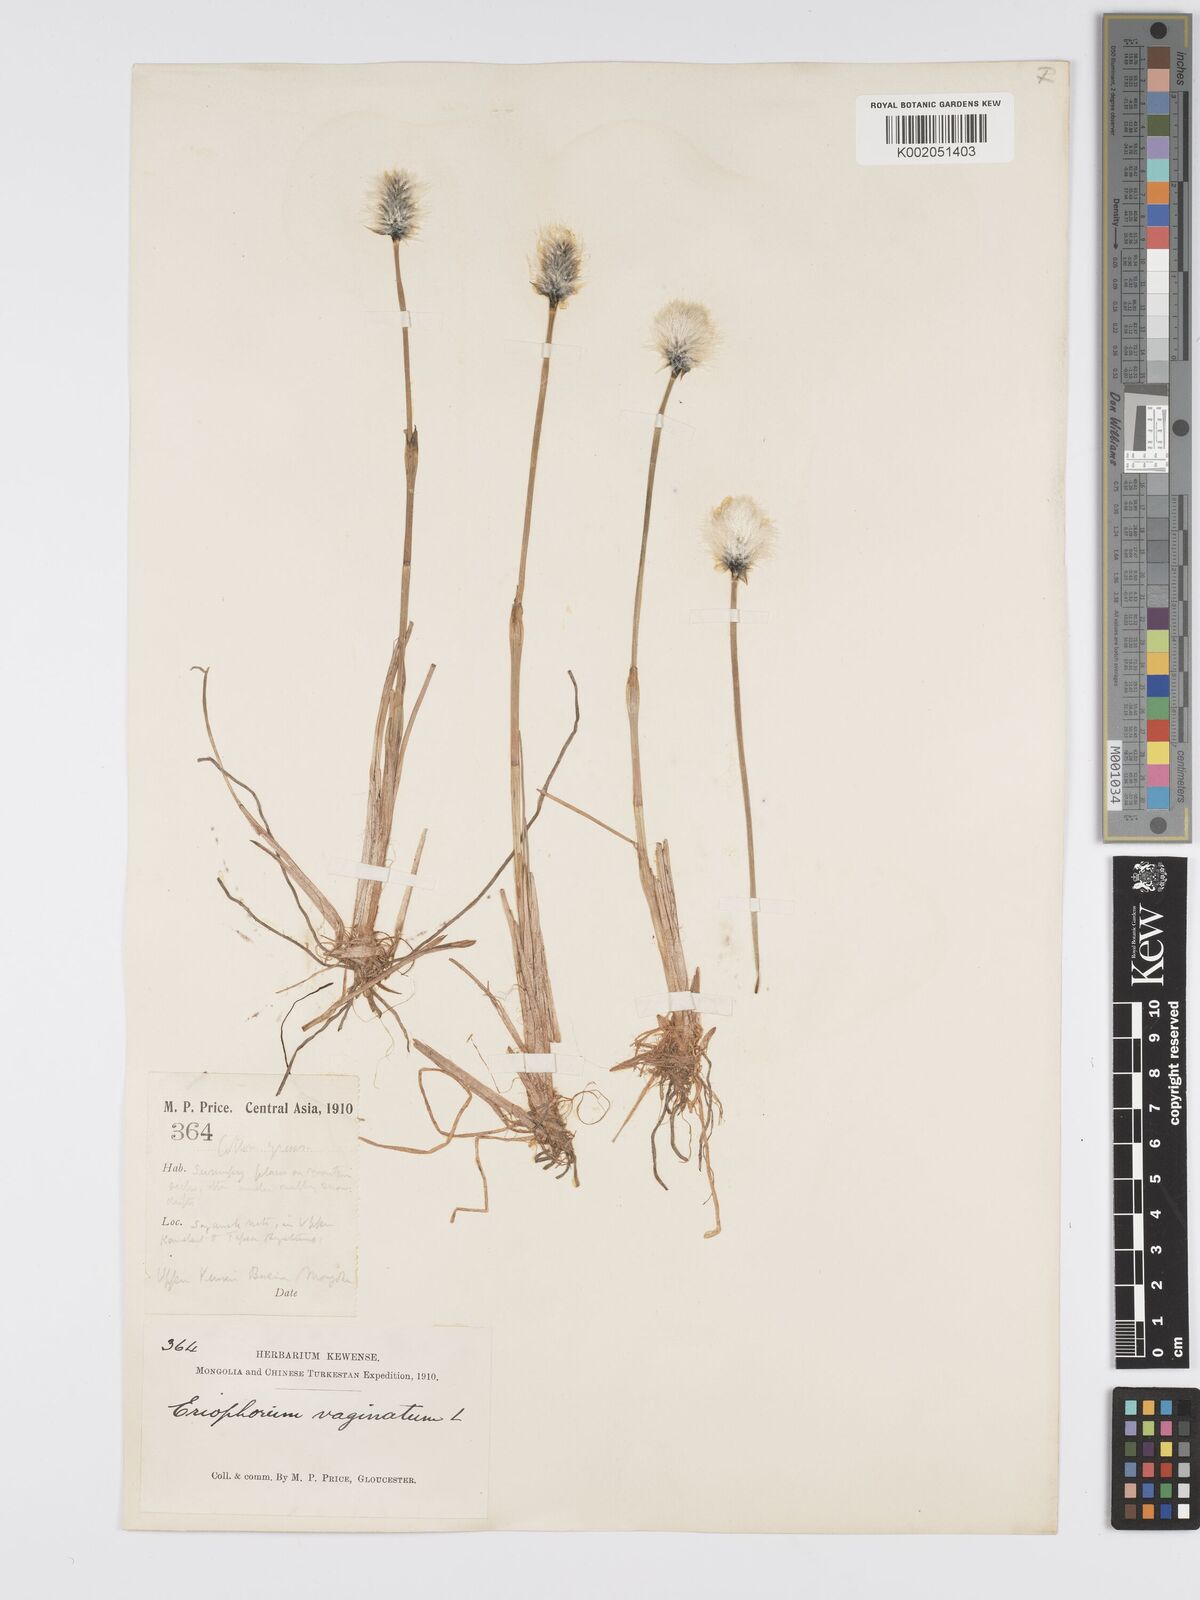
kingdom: Plantae
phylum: Tracheophyta
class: Liliopsida
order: Poales
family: Cyperaceae
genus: Eriophorum
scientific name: Eriophorum vaginatum
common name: Hare's-tail cottongrass
